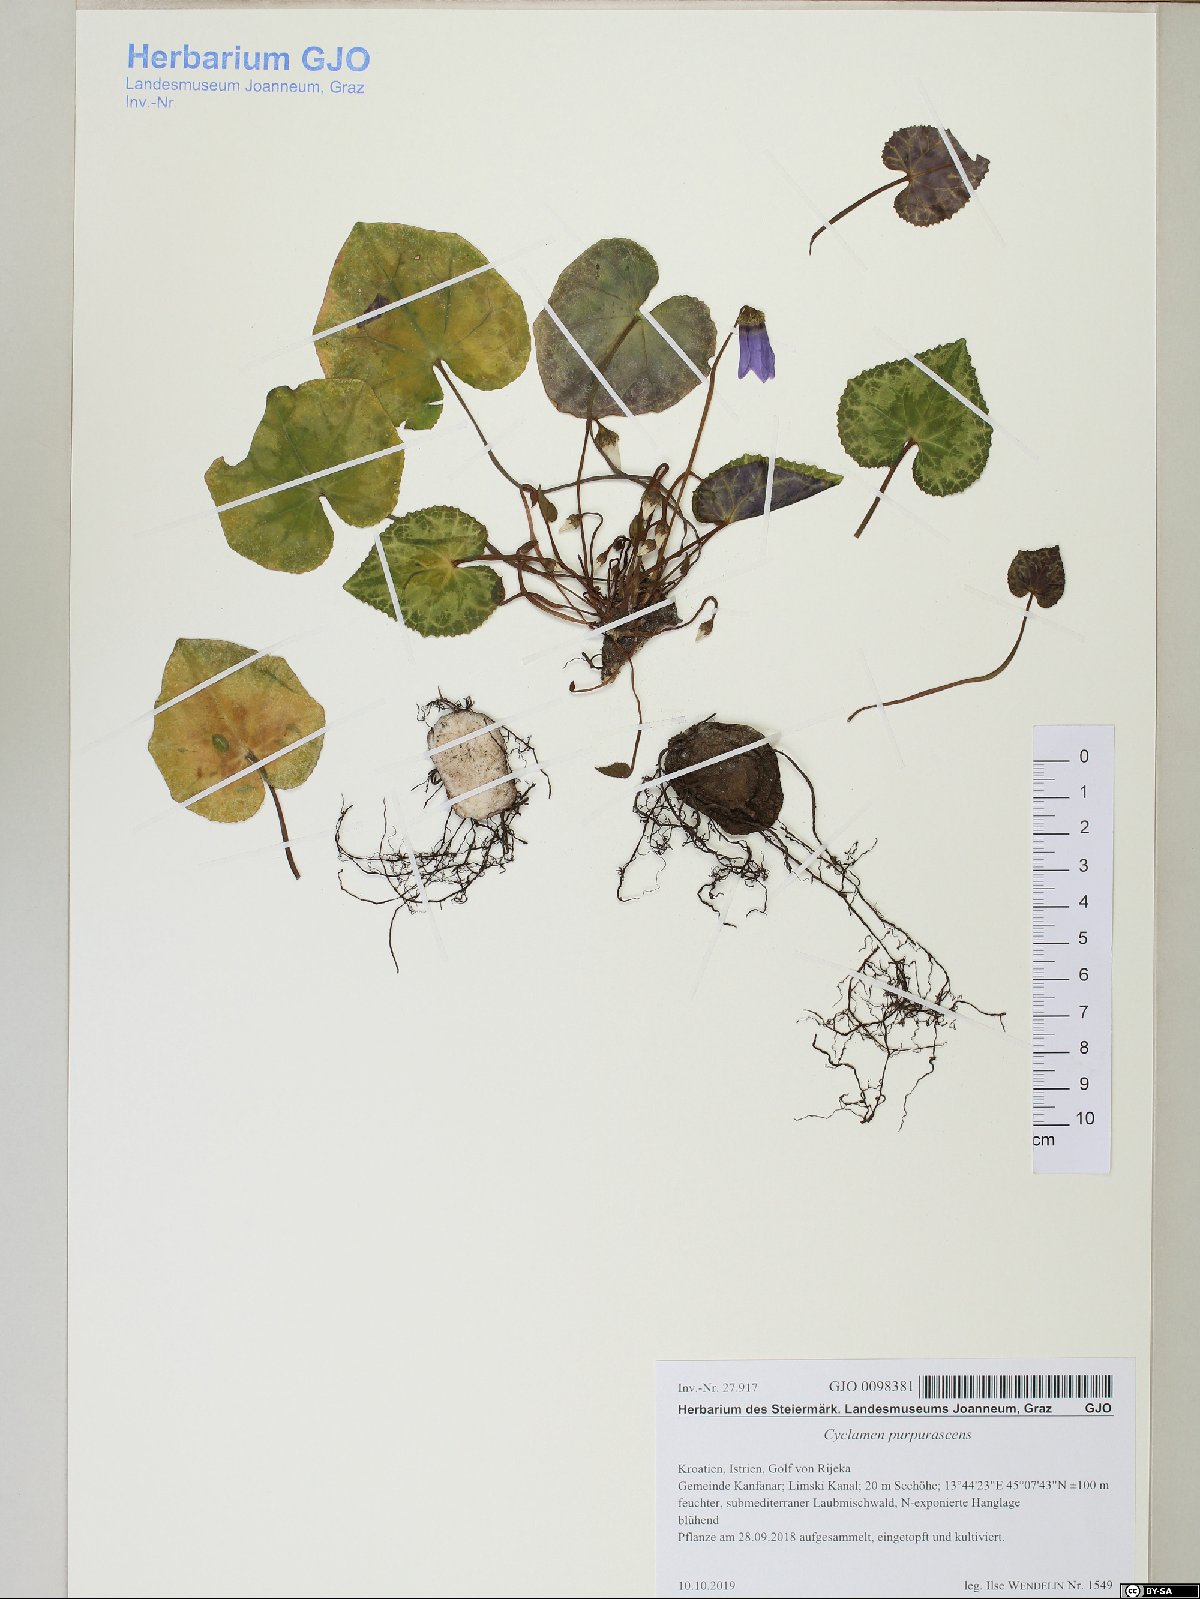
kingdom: Plantae
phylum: Tracheophyta
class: Magnoliopsida
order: Ericales
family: Primulaceae
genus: Cyclamen
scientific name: Cyclamen purpurascens
